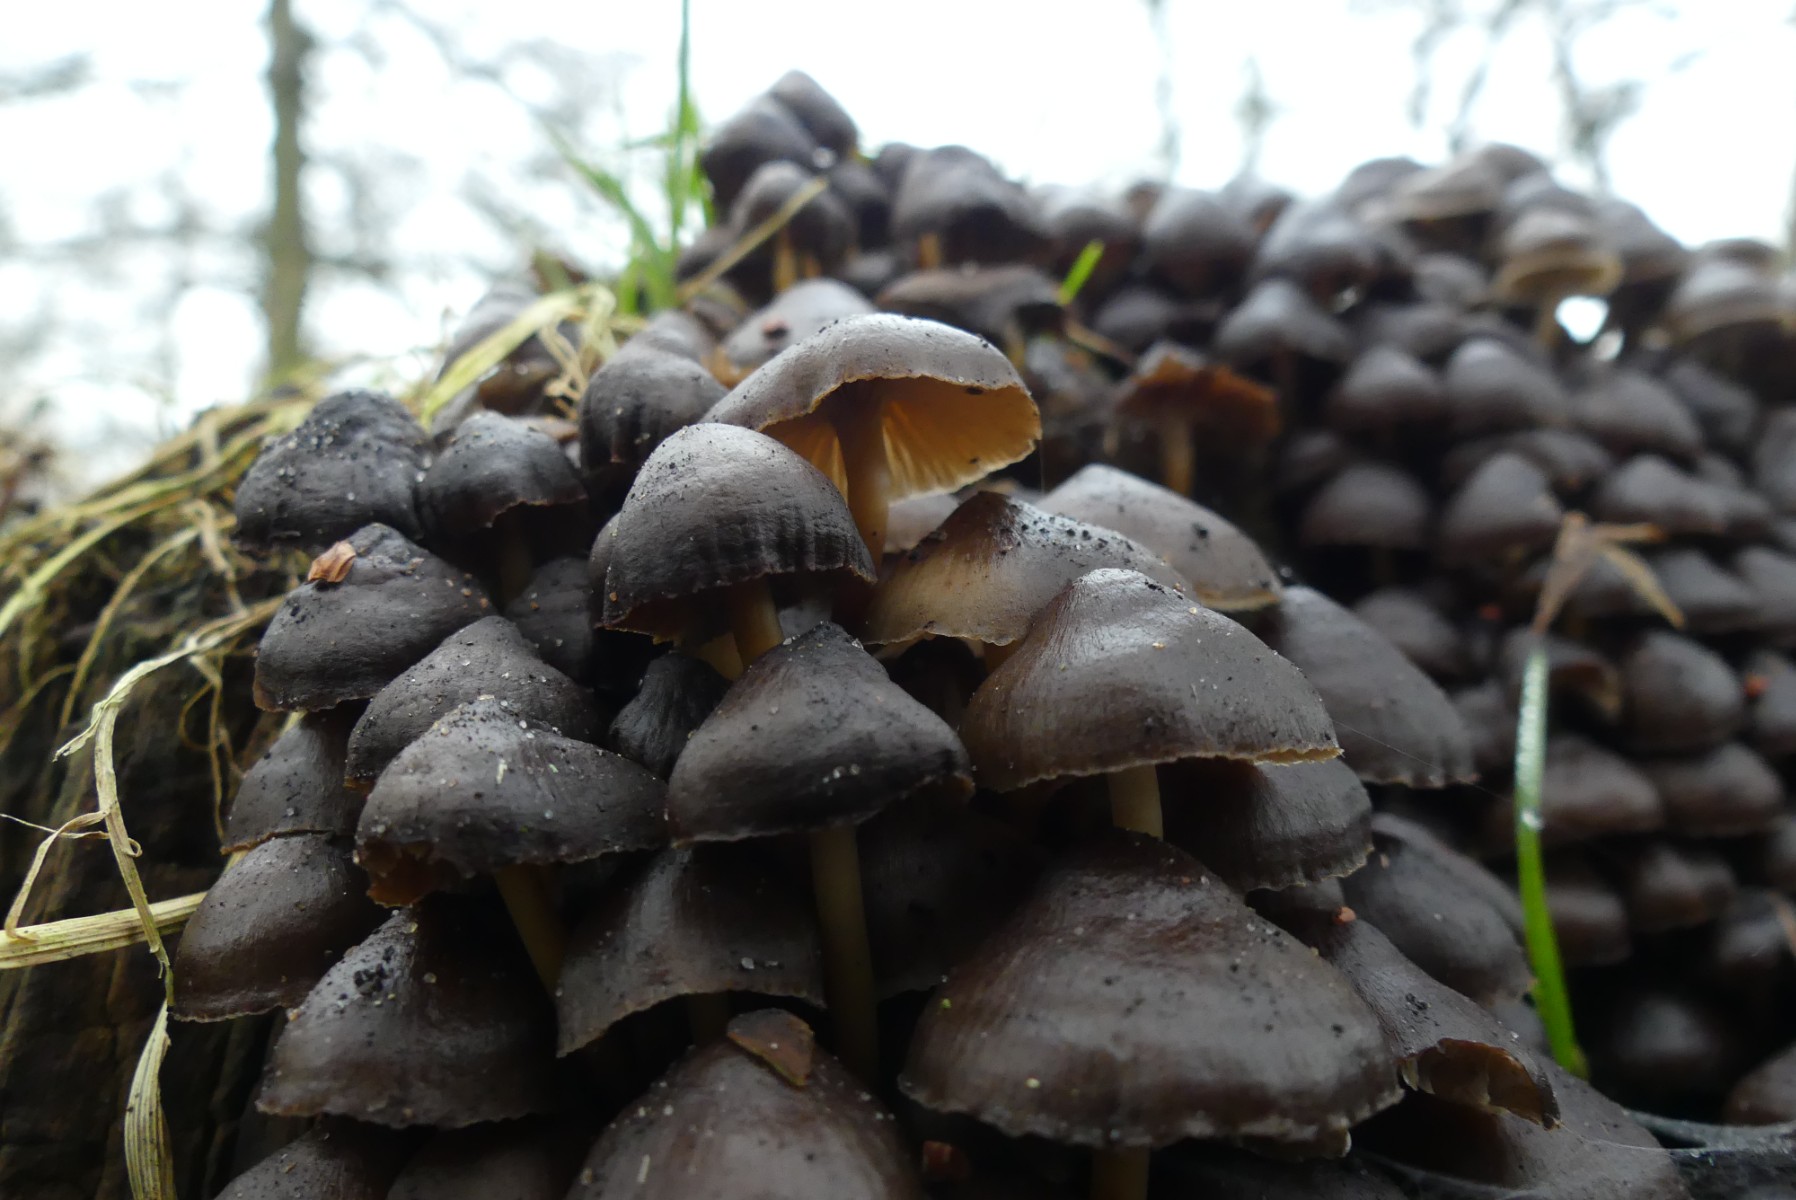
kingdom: Fungi
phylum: Basidiomycota
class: Agaricomycetes
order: Agaricales
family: Mycenaceae
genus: Mycena
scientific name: Mycena tintinnabulum
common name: vinter-huesvamp
